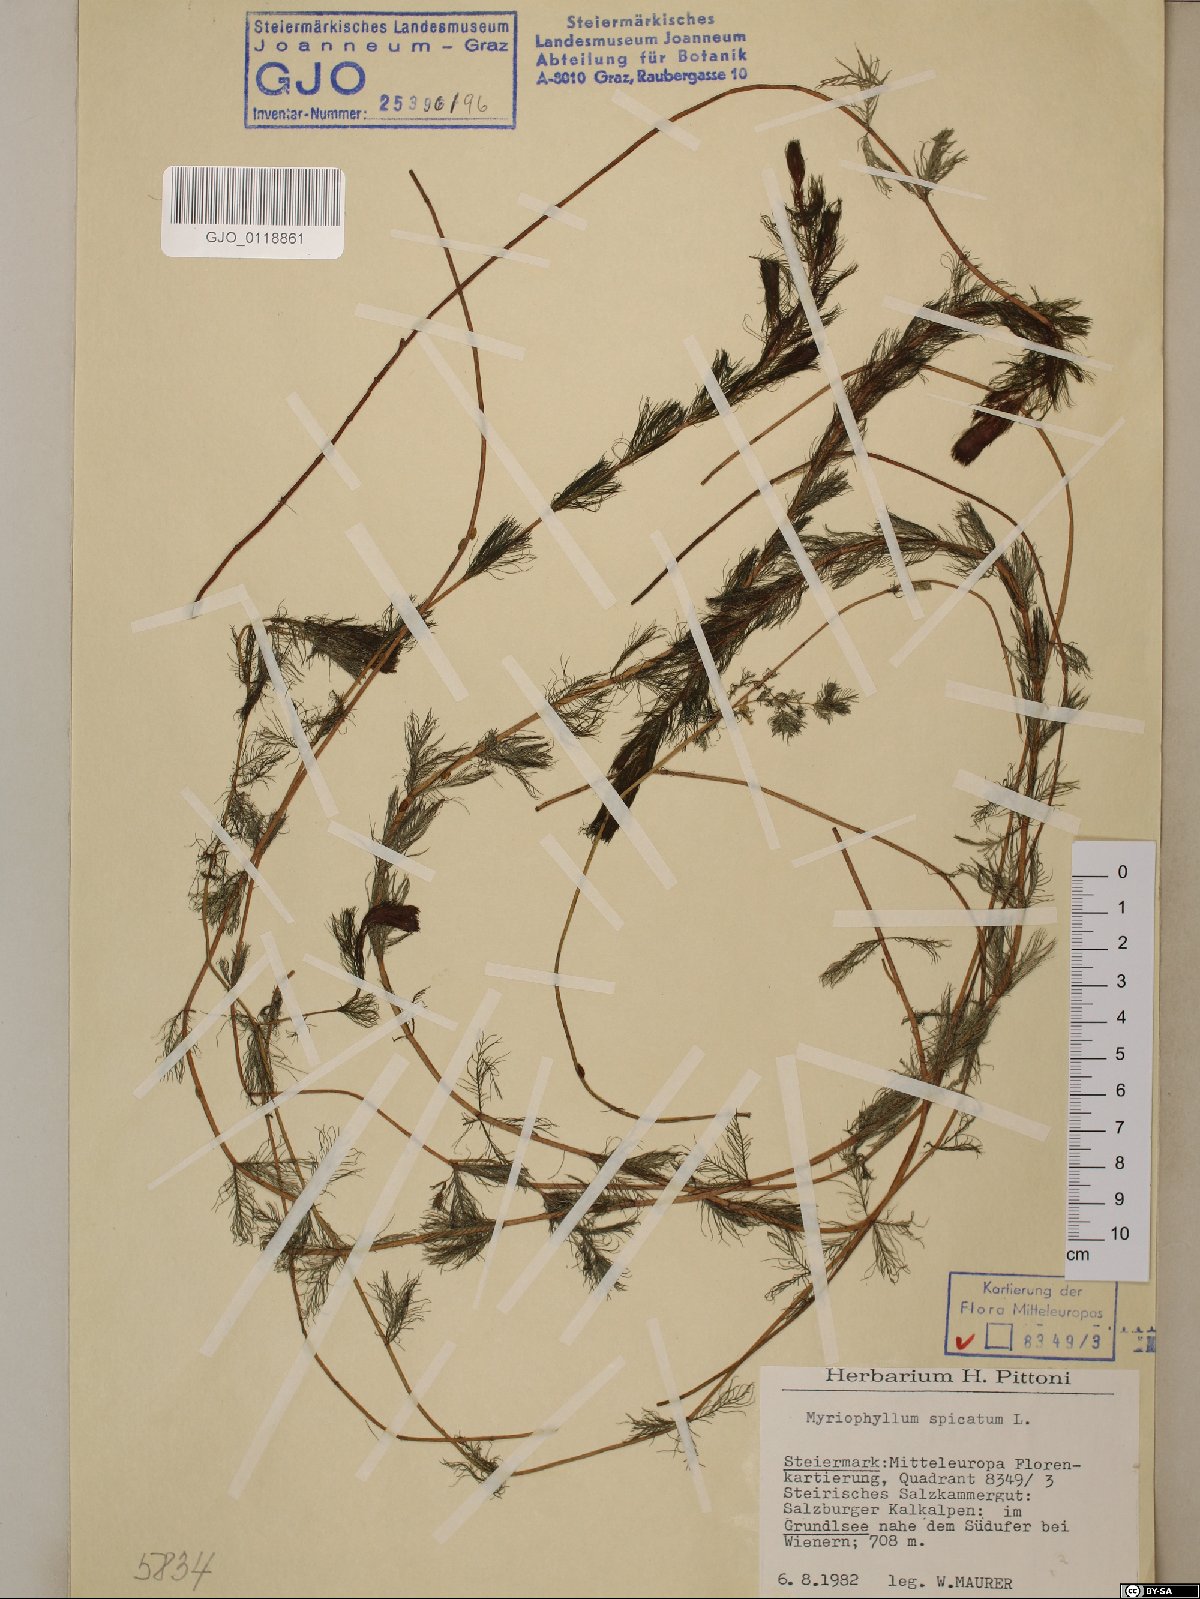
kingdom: Plantae
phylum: Tracheophyta
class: Magnoliopsida
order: Saxifragales
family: Haloragaceae
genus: Myriophyllum
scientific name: Myriophyllum spicatum
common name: Spiked water-milfoil
